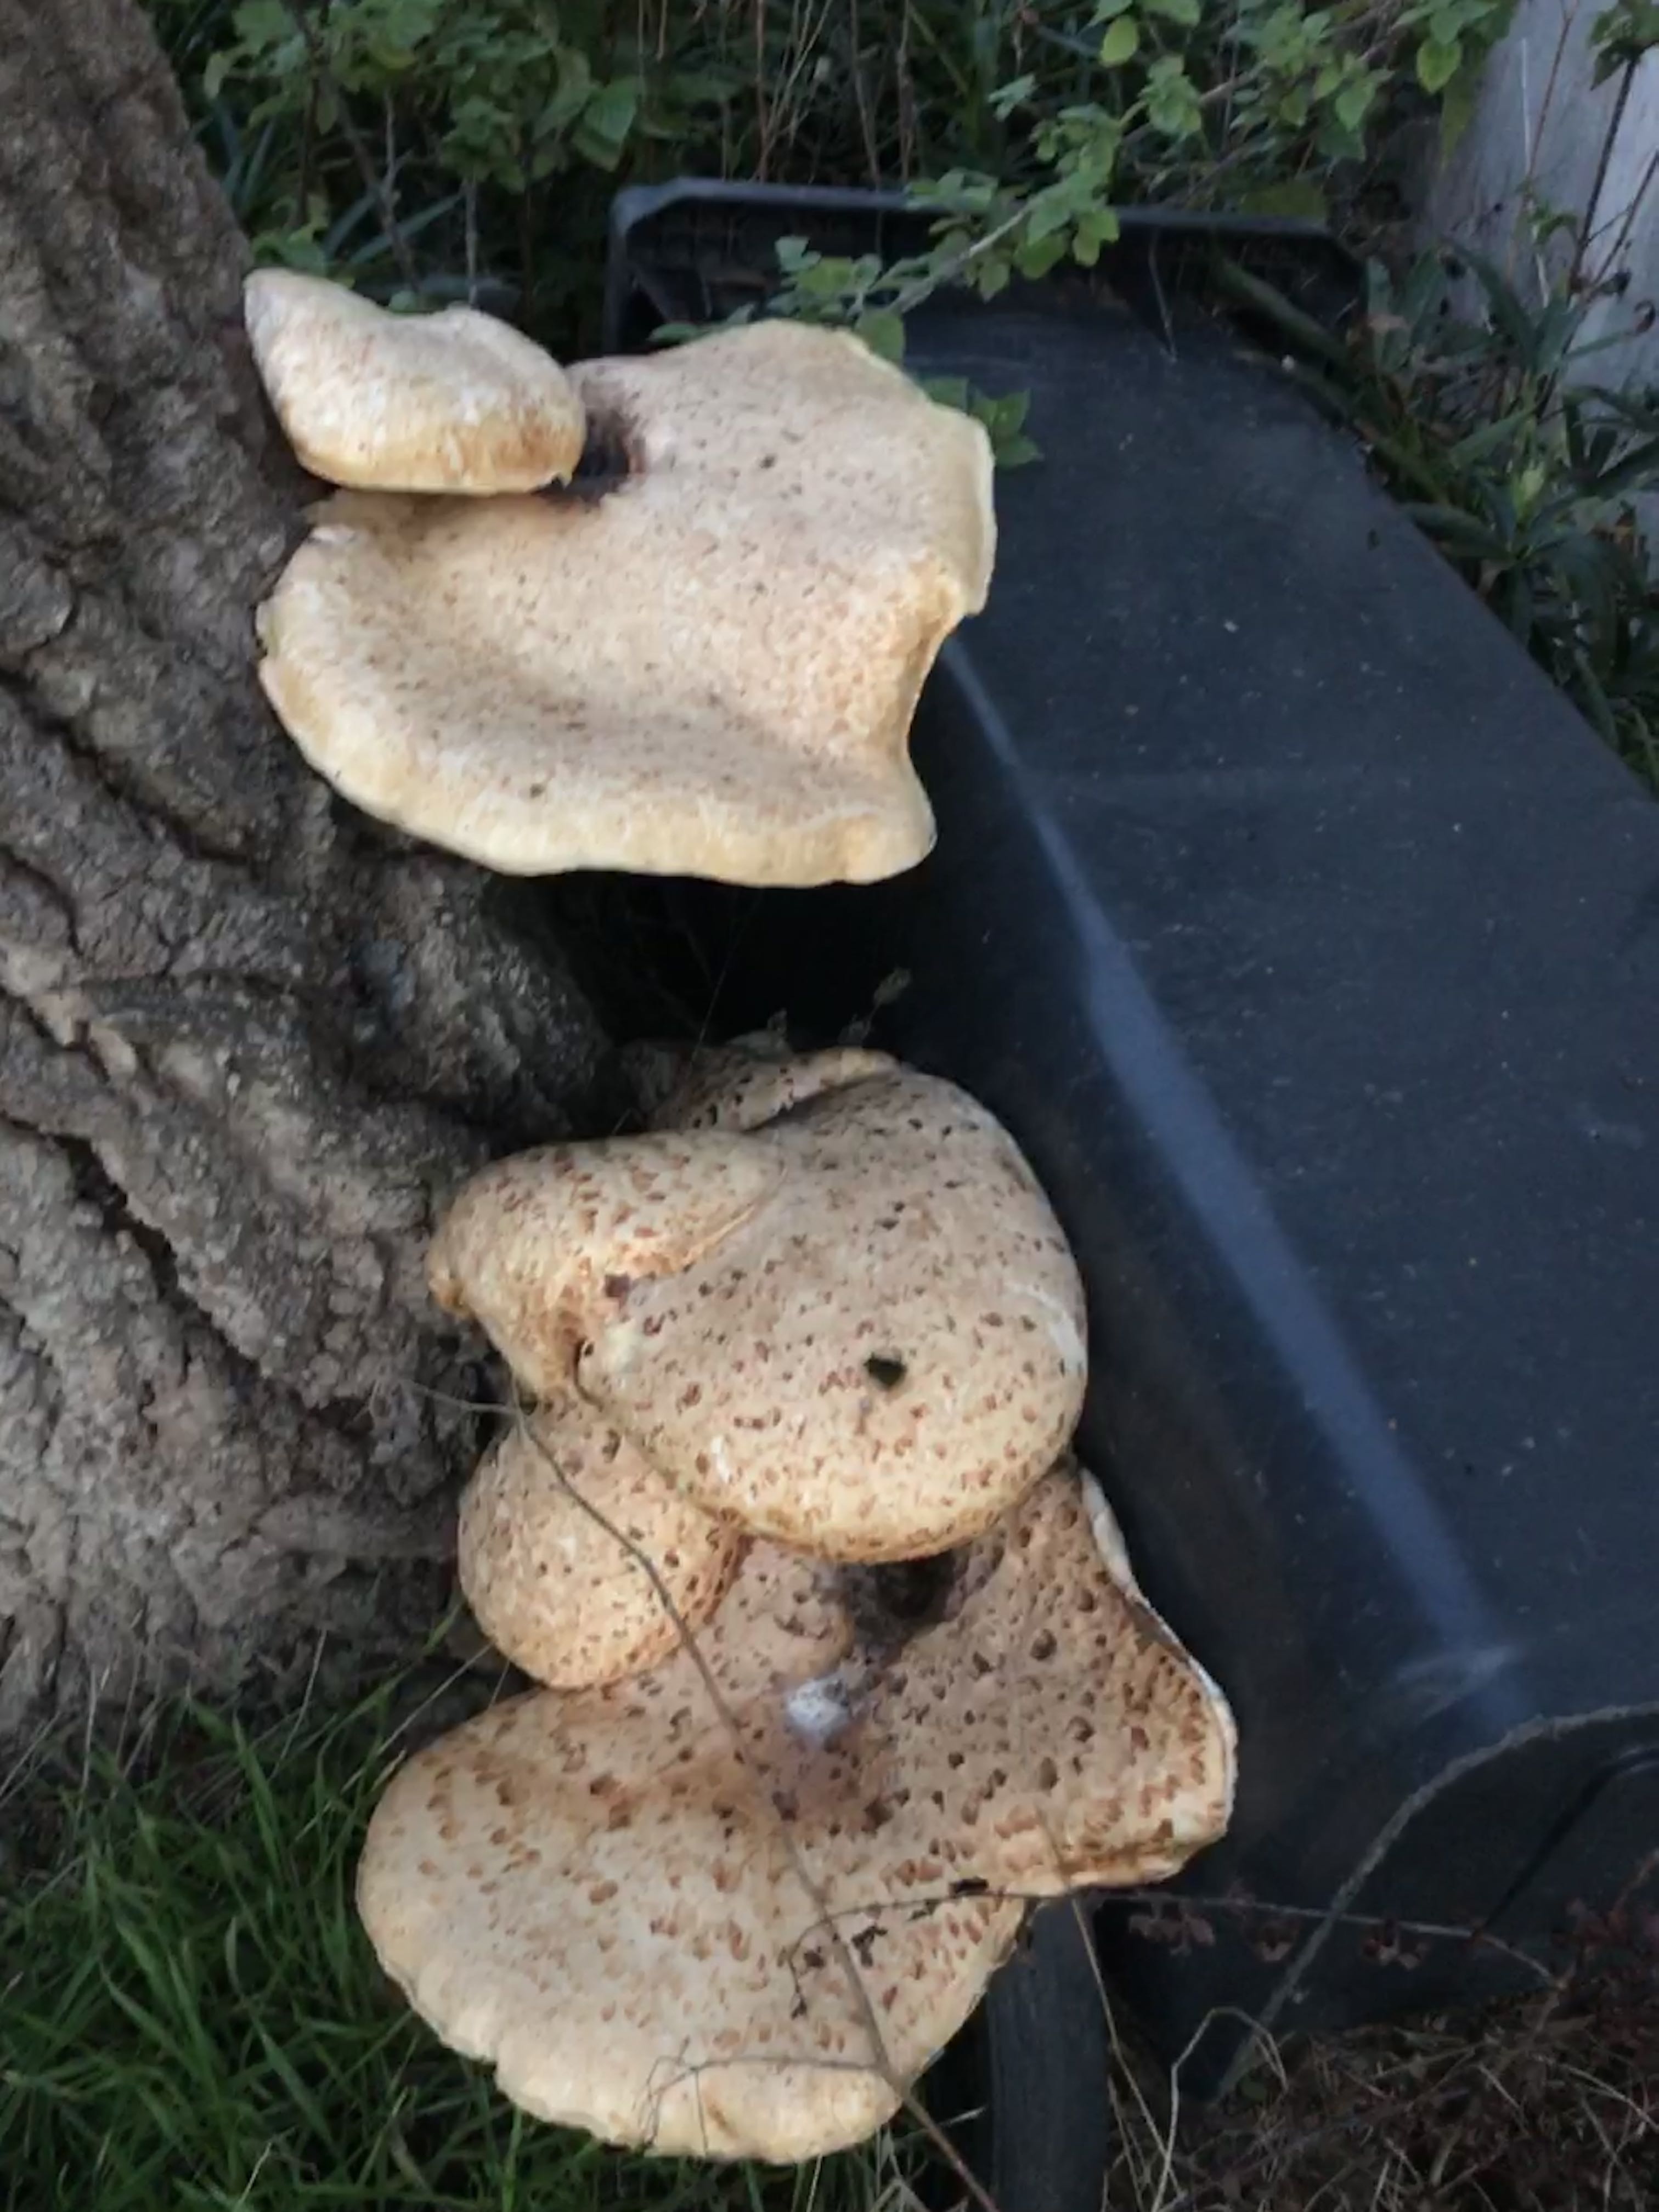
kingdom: Fungi
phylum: Basidiomycota
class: Agaricomycetes
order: Polyporales
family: Polyporaceae
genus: Cerioporus
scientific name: Cerioporus squamosus
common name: skællet stilkporesvamp
